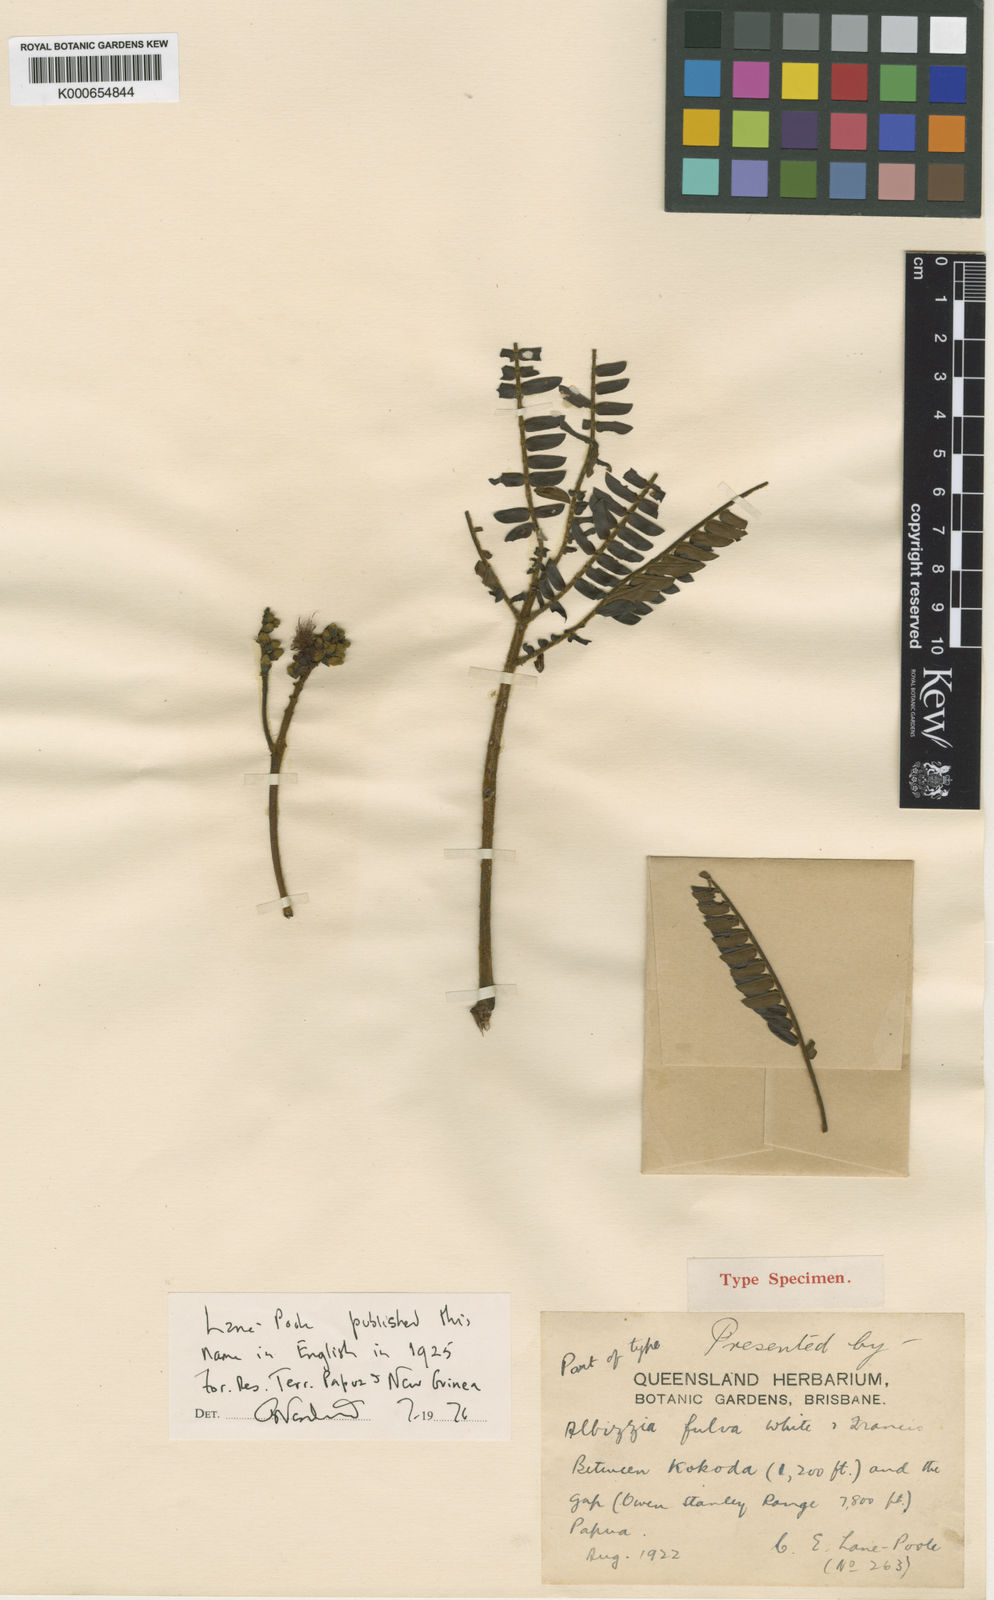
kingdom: Plantae
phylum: Tracheophyta
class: Magnoliopsida
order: Fabales
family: Fabaceae
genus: Falcataria
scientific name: Falcataria falcata
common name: Moluccan albizia
